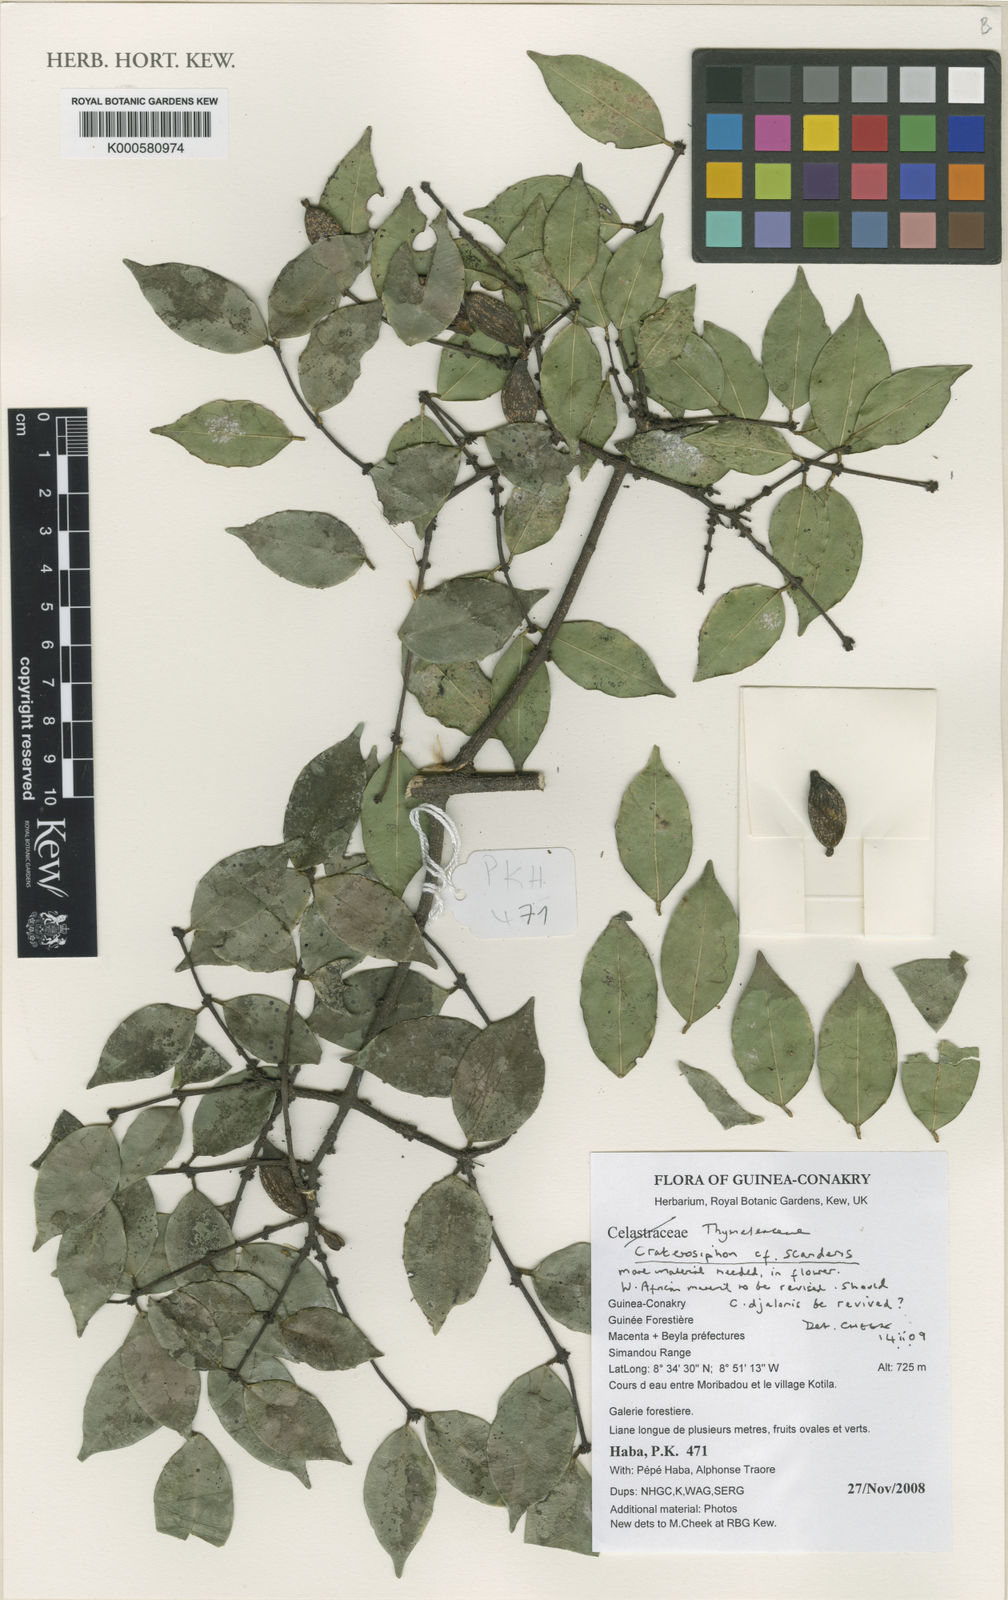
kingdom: Plantae
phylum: Tracheophyta
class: Magnoliopsida
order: Malvales
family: Thymelaeaceae
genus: Craterosiphon
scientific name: Craterosiphon scandens
